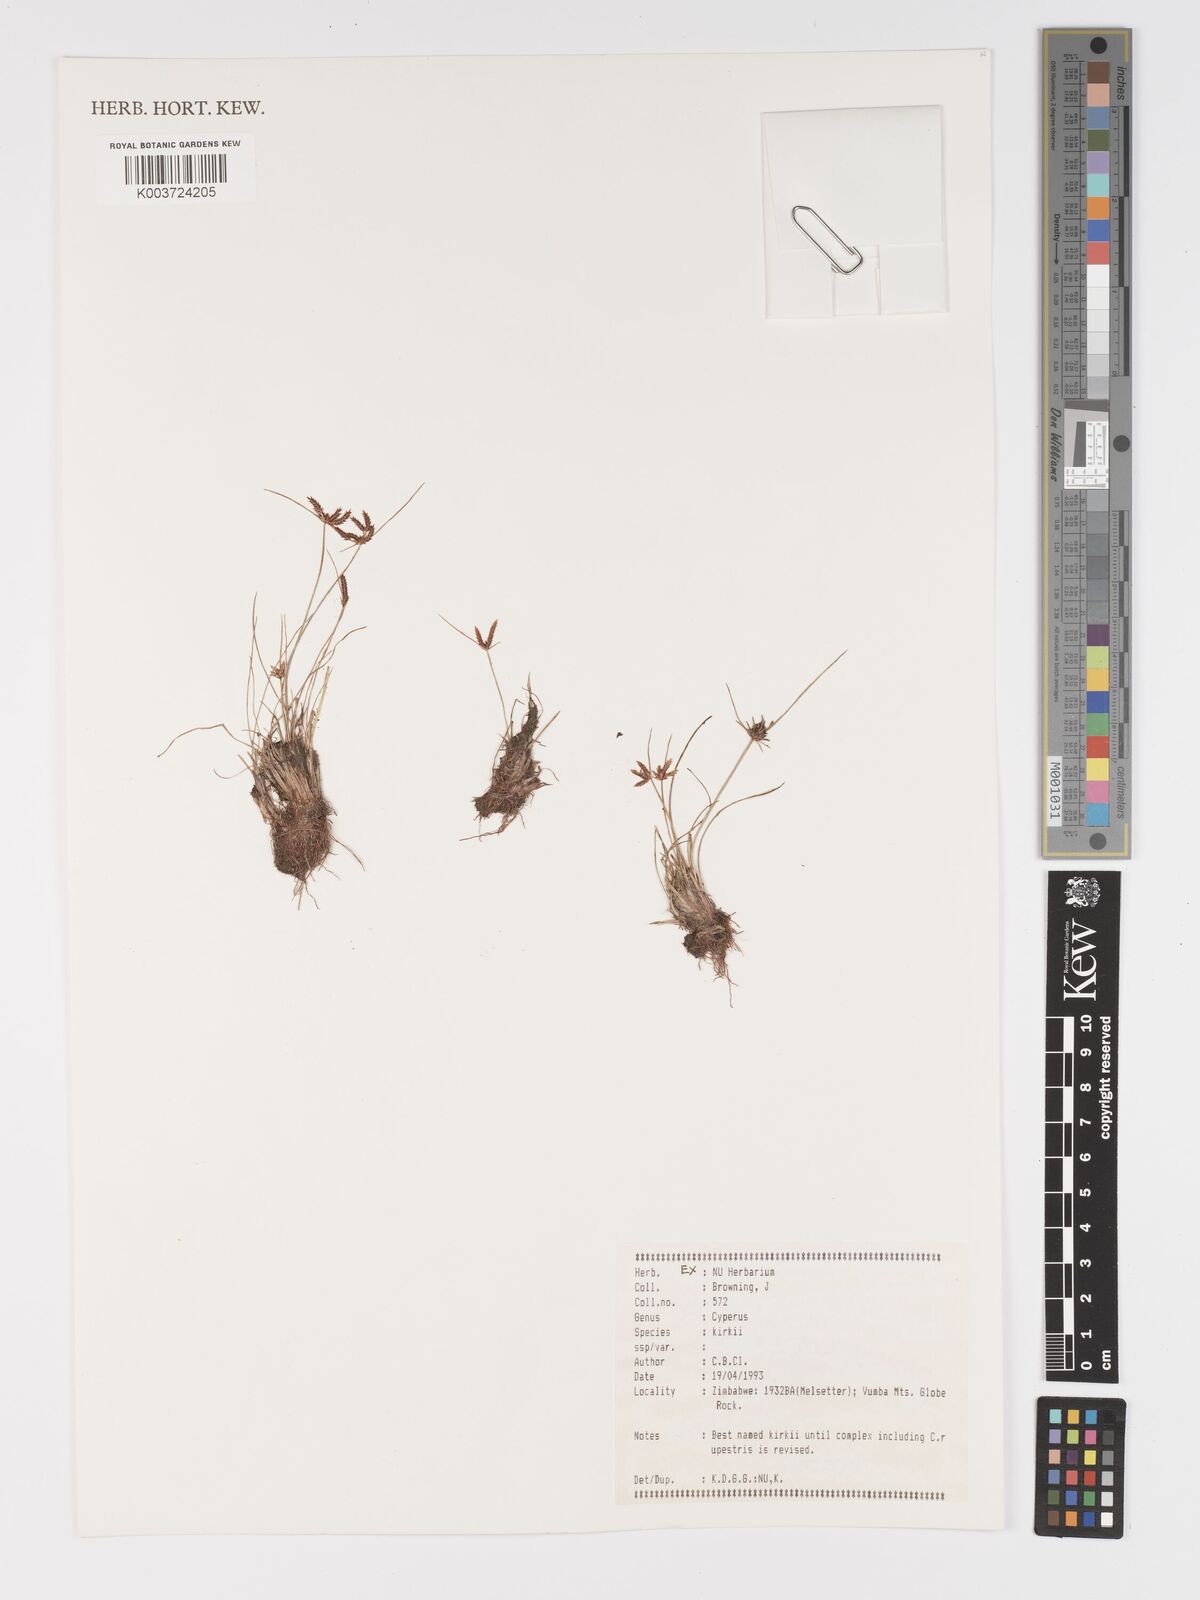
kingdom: Plantae
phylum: Tracheophyta
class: Liliopsida
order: Poales
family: Cyperaceae
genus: Cyperus
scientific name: Cyperus semitrifidus
